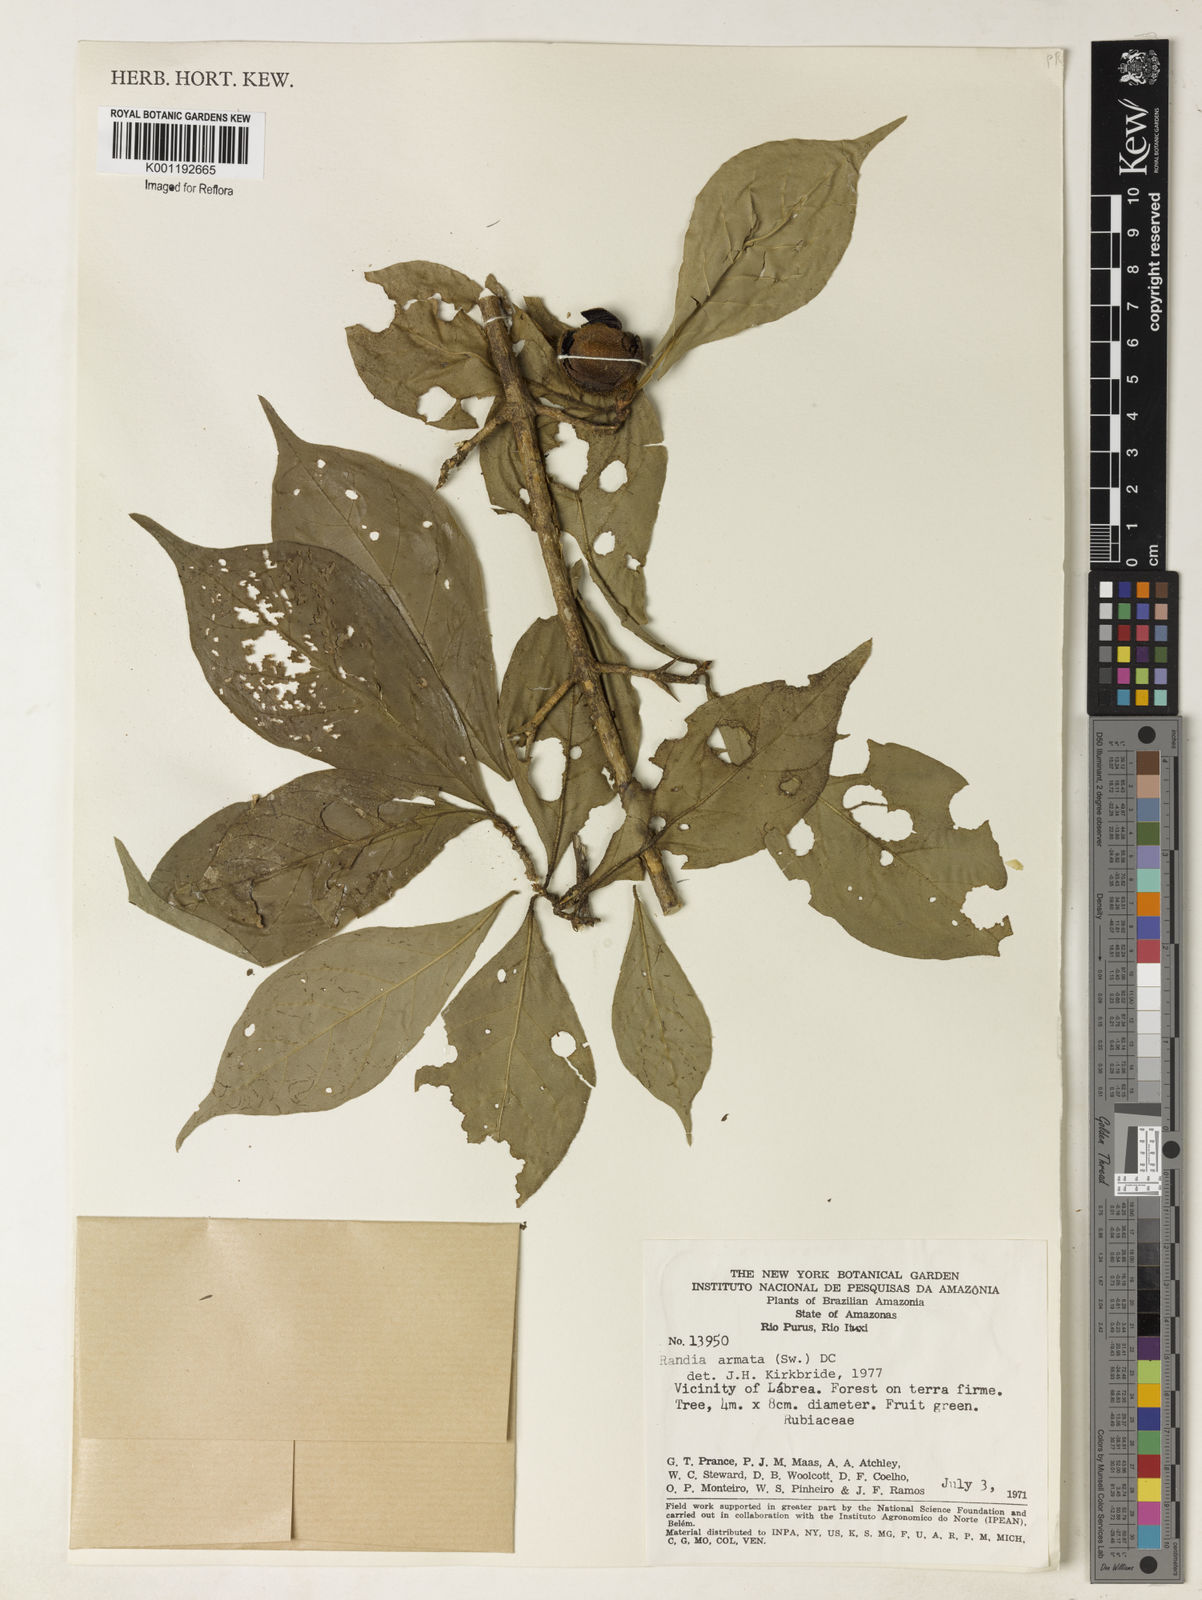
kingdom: Plantae
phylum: Tracheophyta
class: Magnoliopsida
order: Gentianales
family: Rubiaceae
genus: Randia
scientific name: Randia armata
